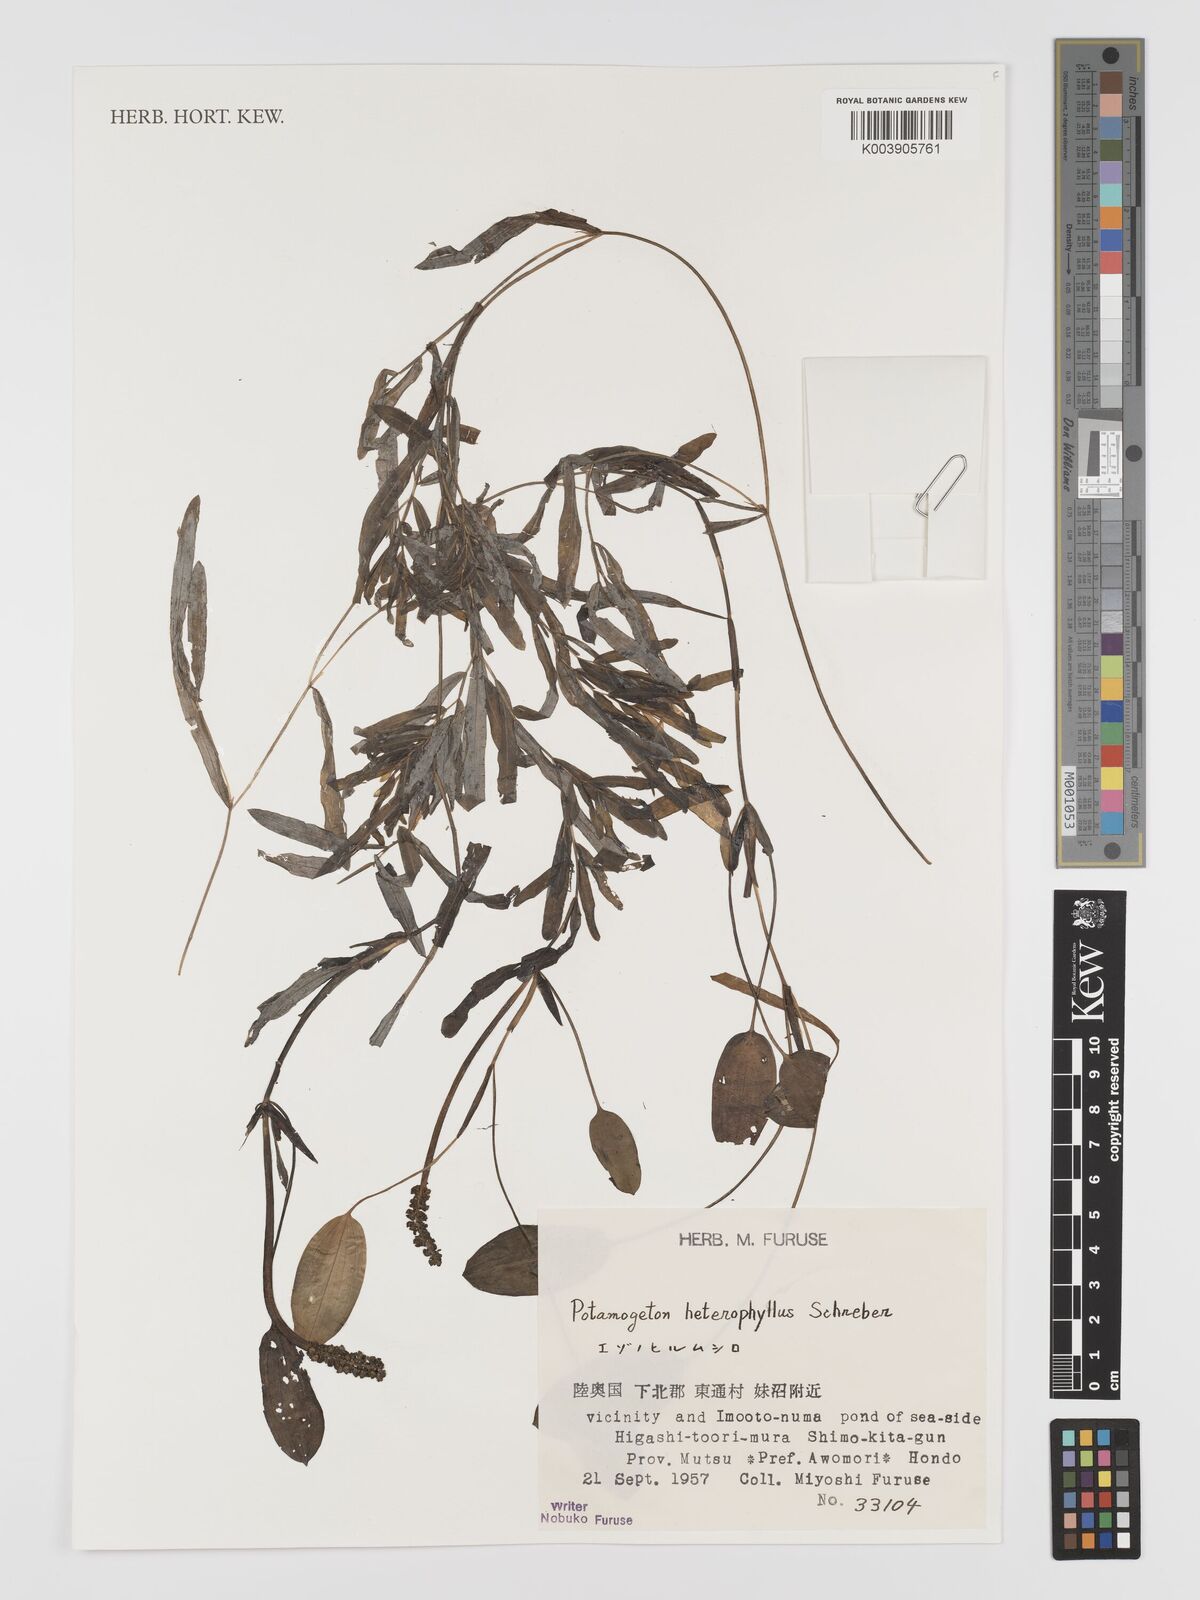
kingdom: Plantae
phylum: Tracheophyta
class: Liliopsida
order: Alismatales
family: Potamogetonaceae
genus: Potamogeton
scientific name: Potamogeton gramineus
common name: Various-leaved pondweed
